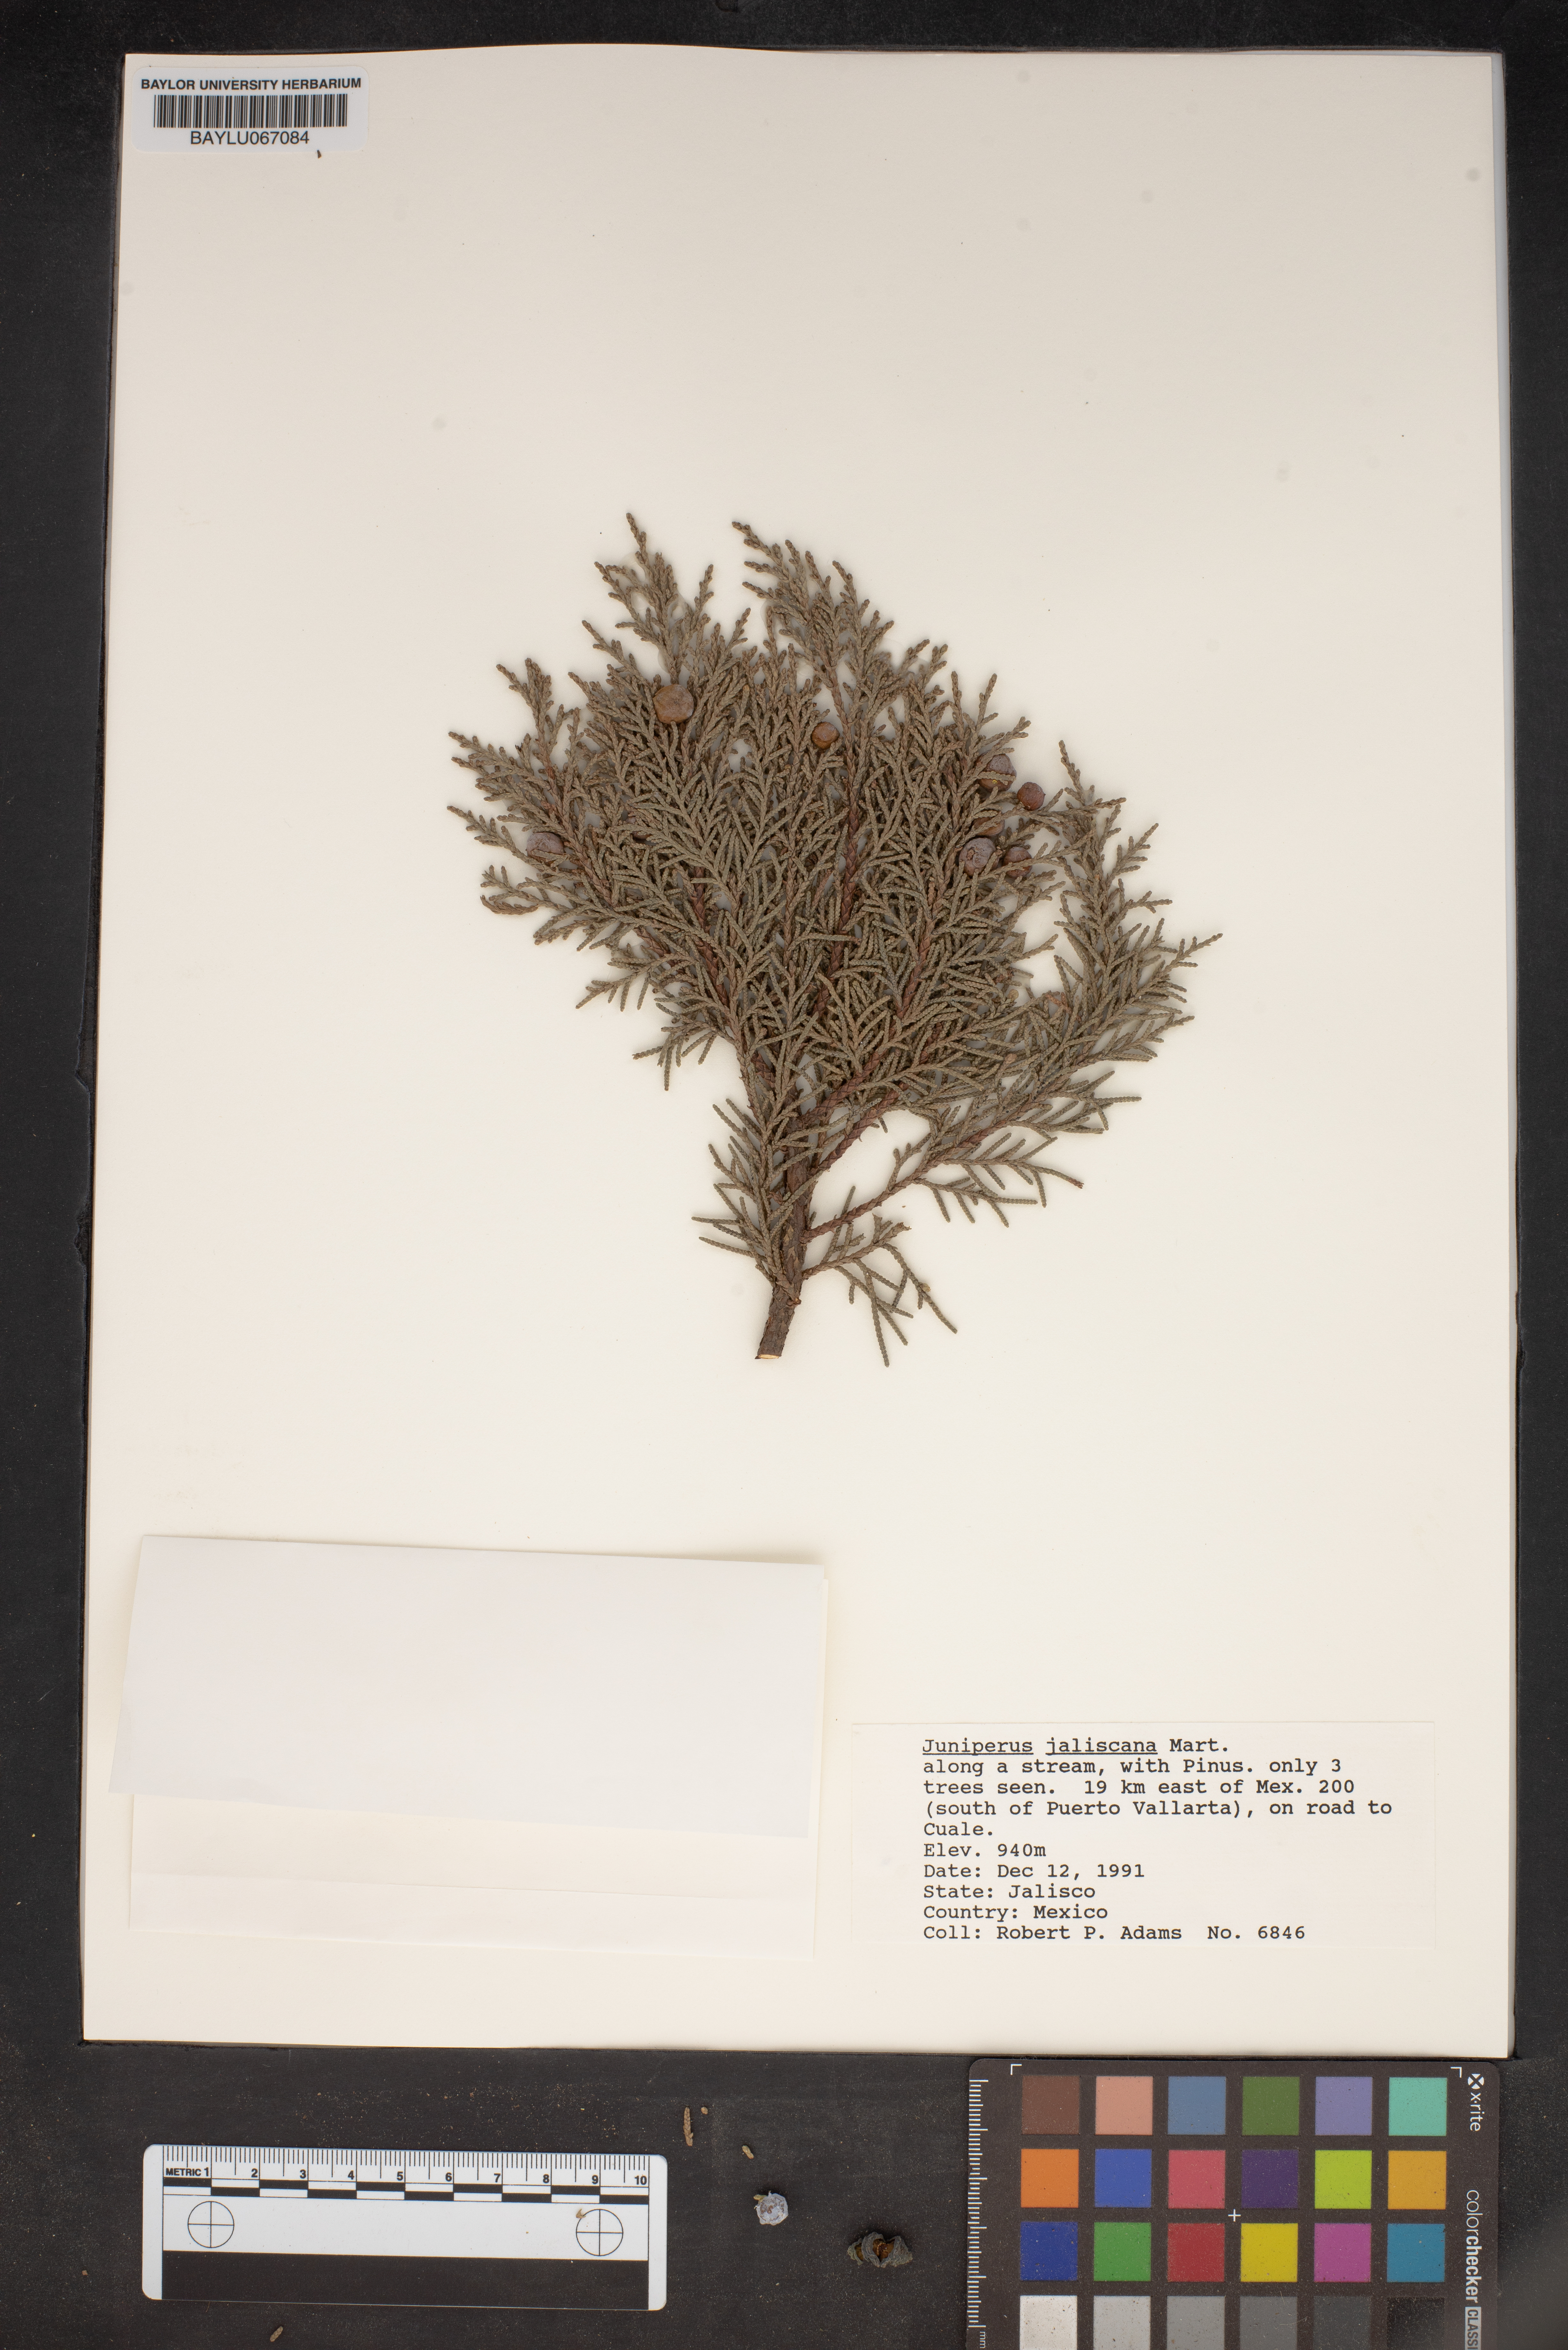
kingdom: Plantae
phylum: Tracheophyta
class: Pinopsida
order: Pinales
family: Cupressaceae
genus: Juniperus
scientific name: Juniperus jaliscana
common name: Jalisco juniper
